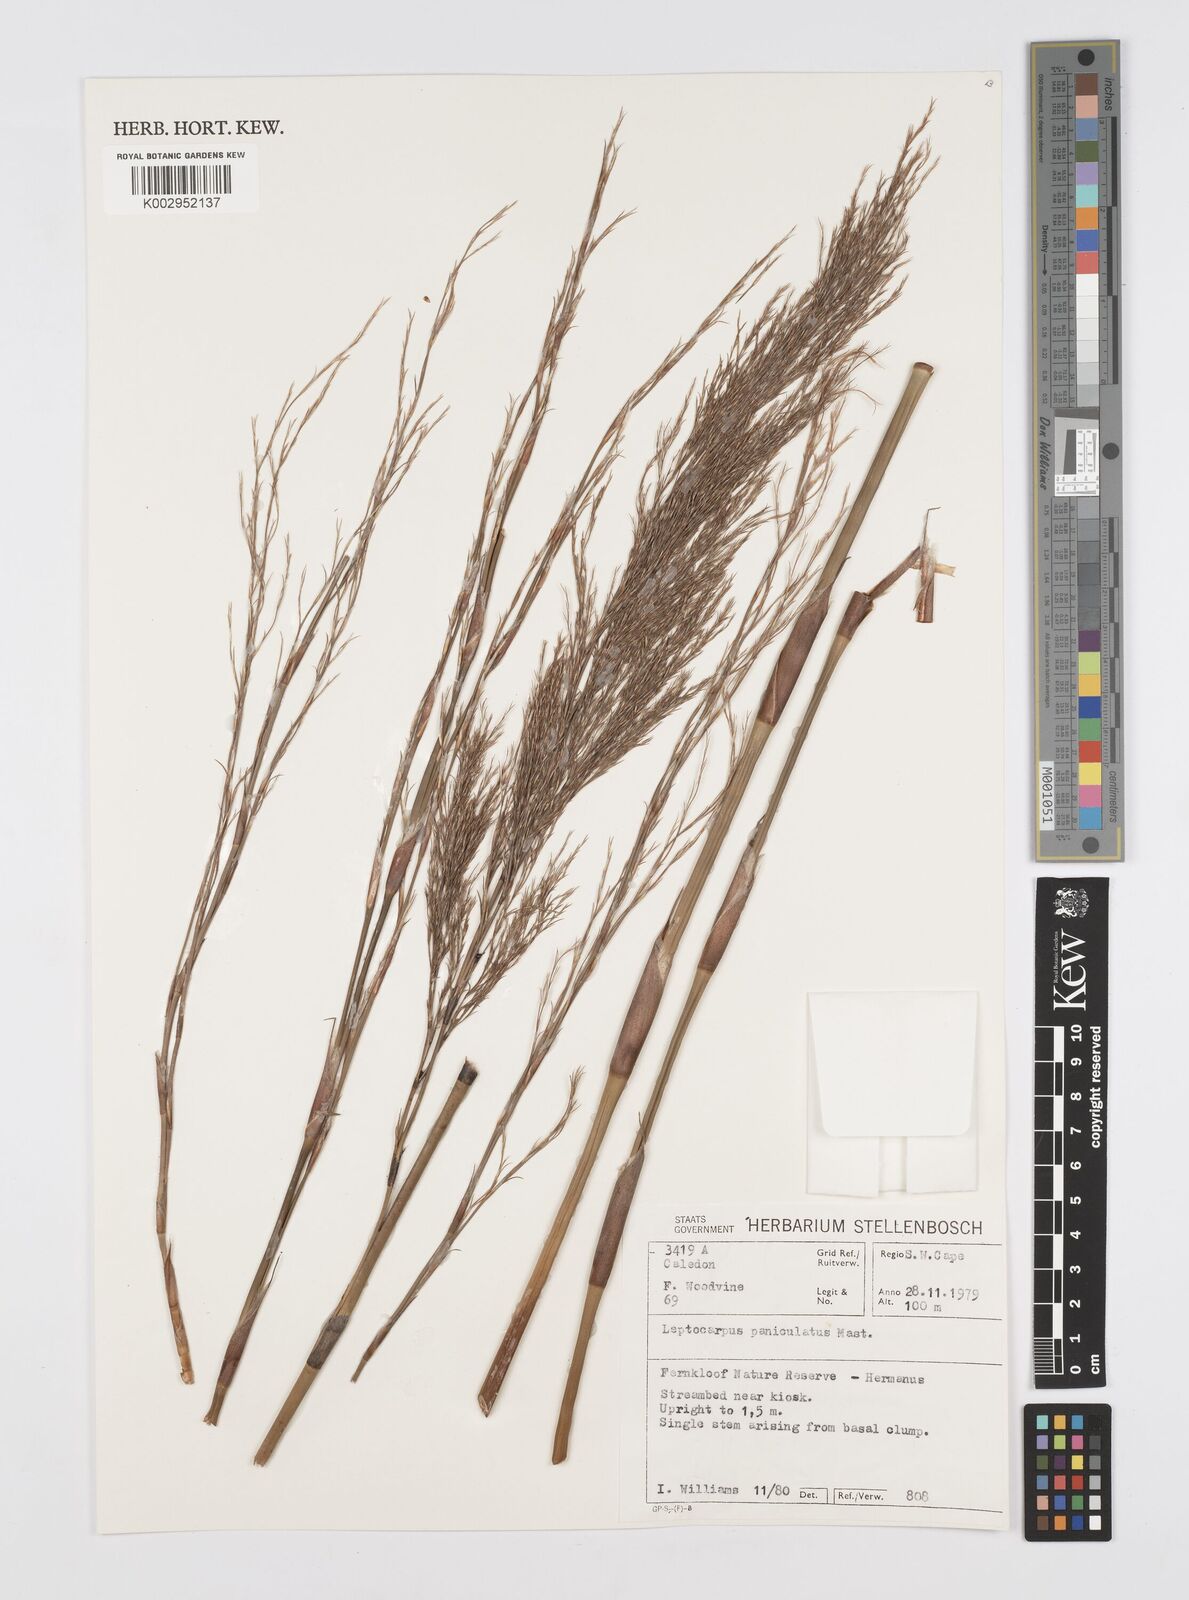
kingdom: Plantae
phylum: Tracheophyta
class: Liliopsida
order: Poales
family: Restionaceae
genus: Restio
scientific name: Restio paniculatus
